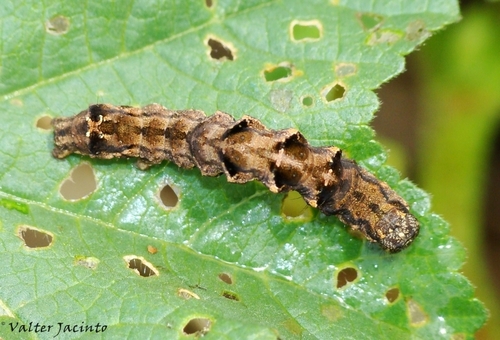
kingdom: Animalia
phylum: Arthropoda
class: Insecta
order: Lepidoptera
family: Noctuidae
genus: Acontia
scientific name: Acontia lucida
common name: Pale shoulder
